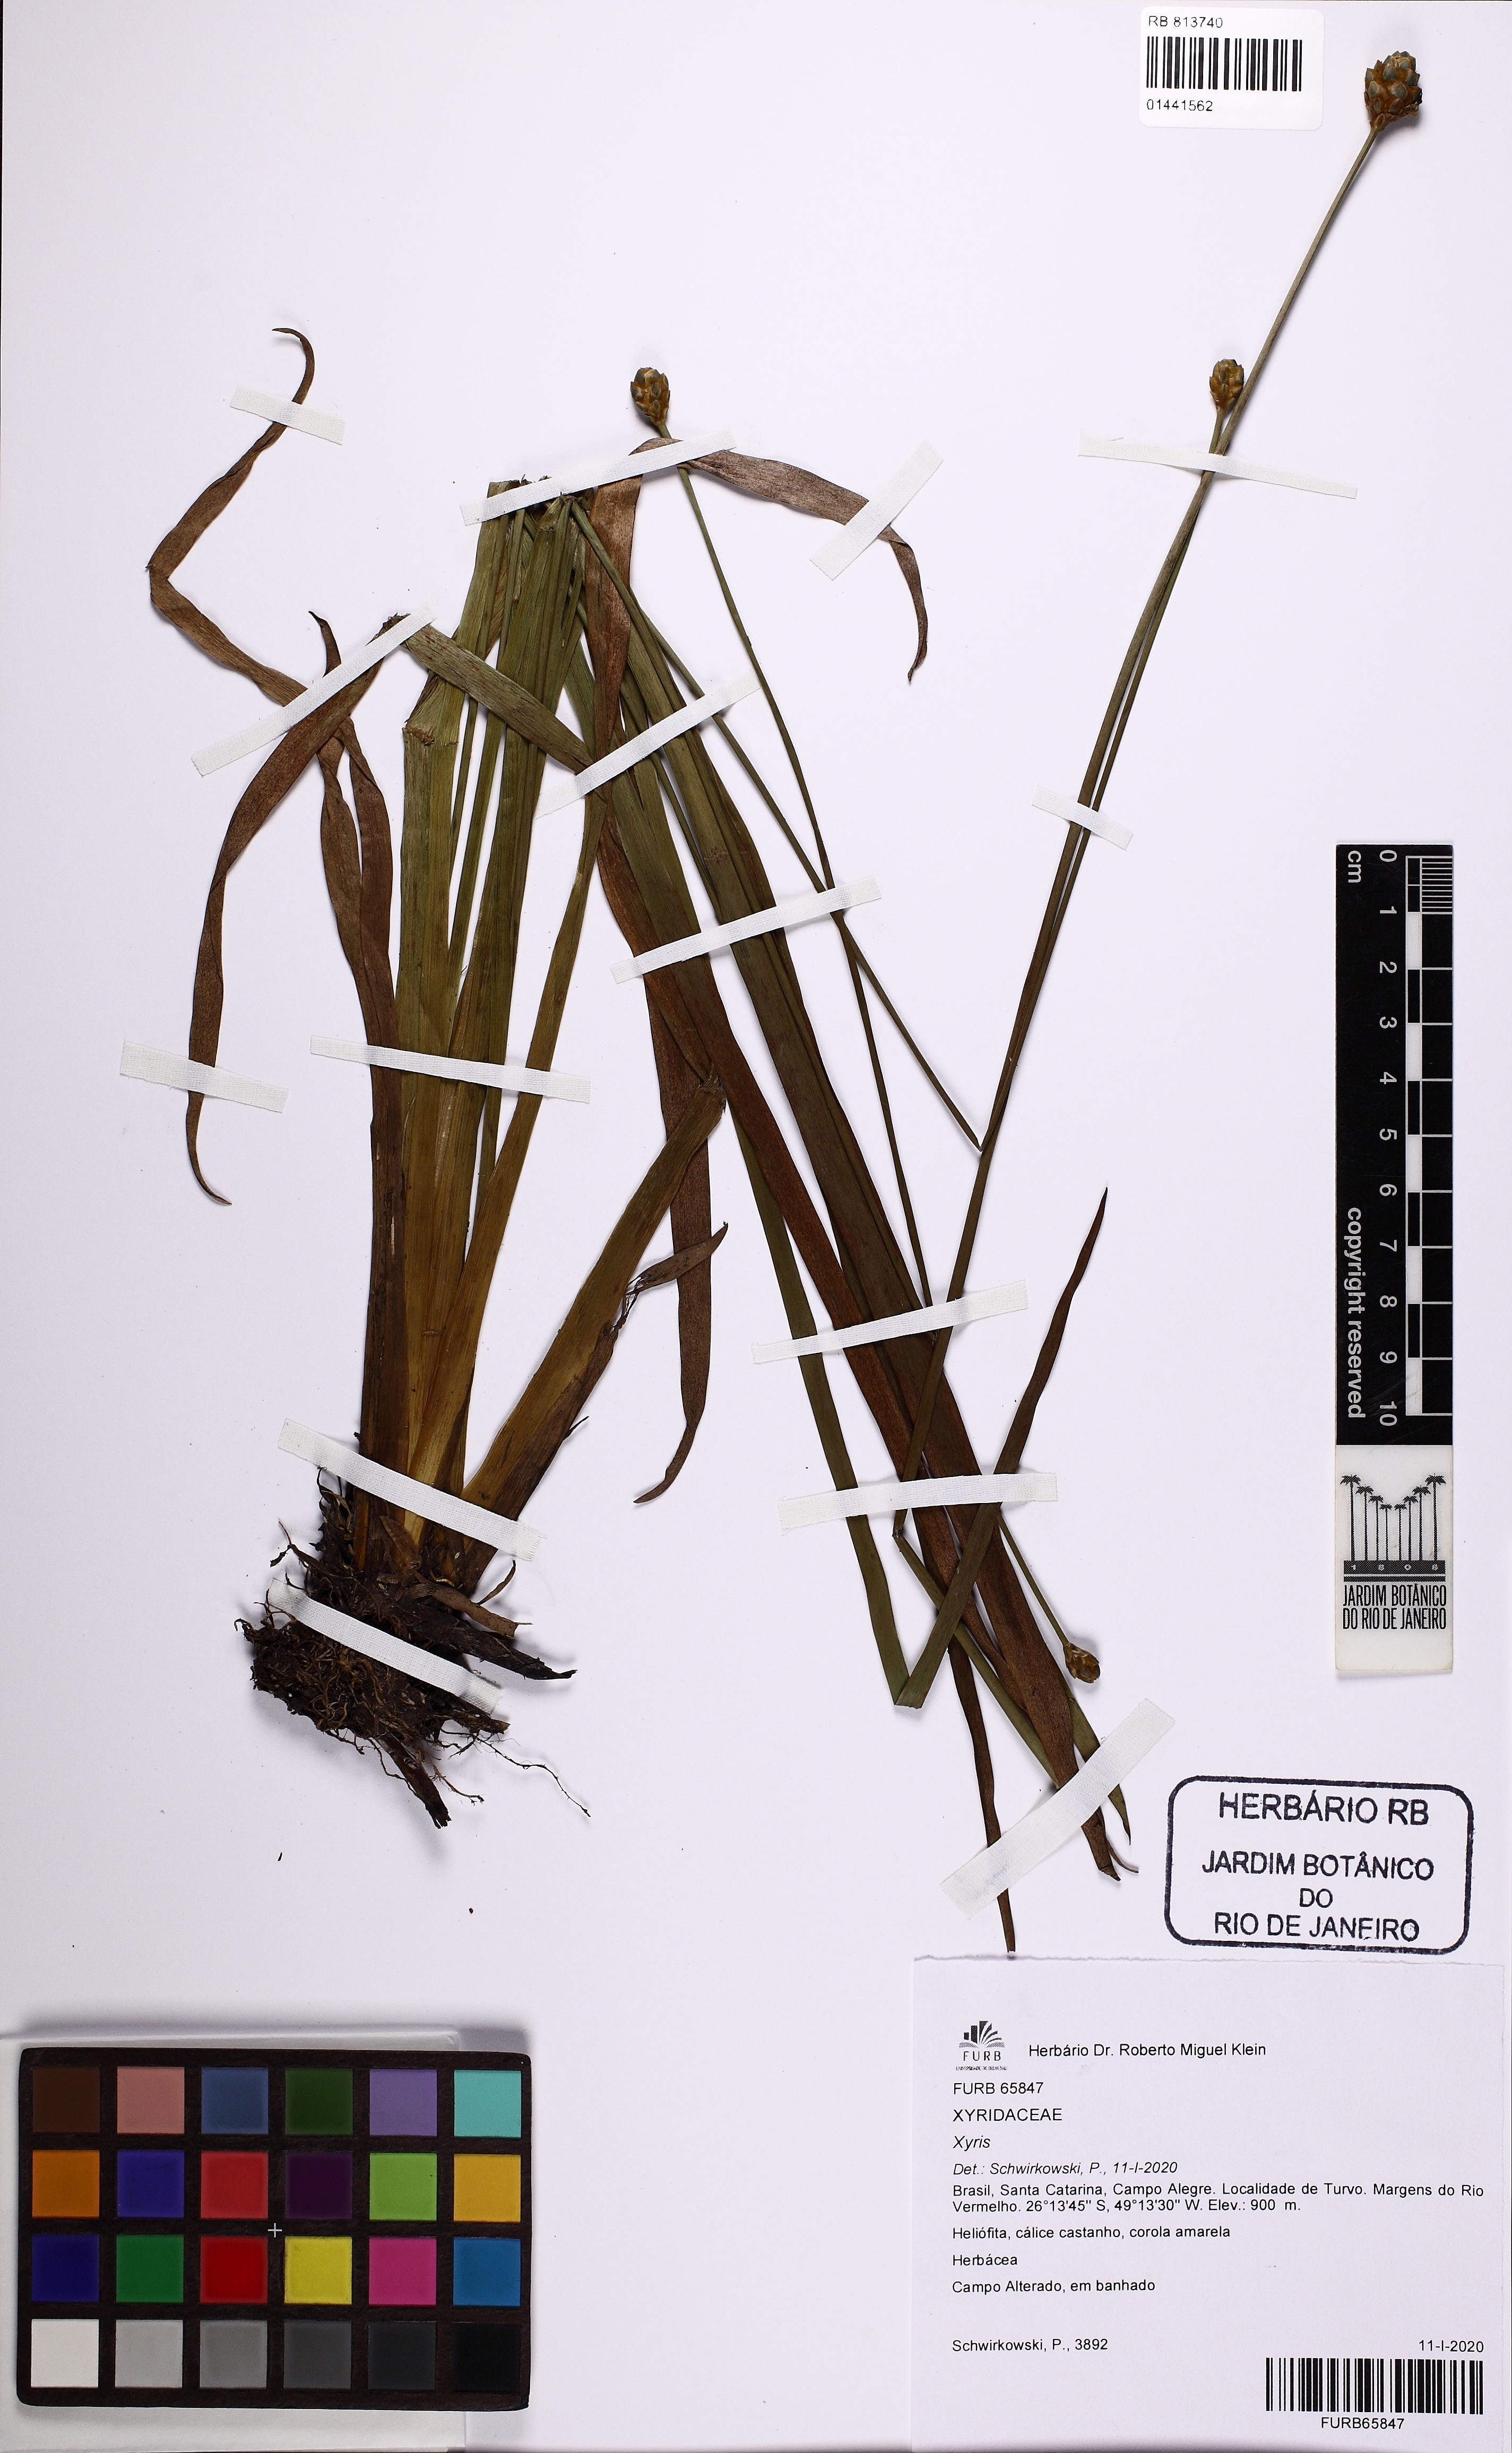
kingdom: Plantae
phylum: Tracheophyta
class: Liliopsida
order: Poales
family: Xyridaceae
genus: Xyris
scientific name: Xyris
